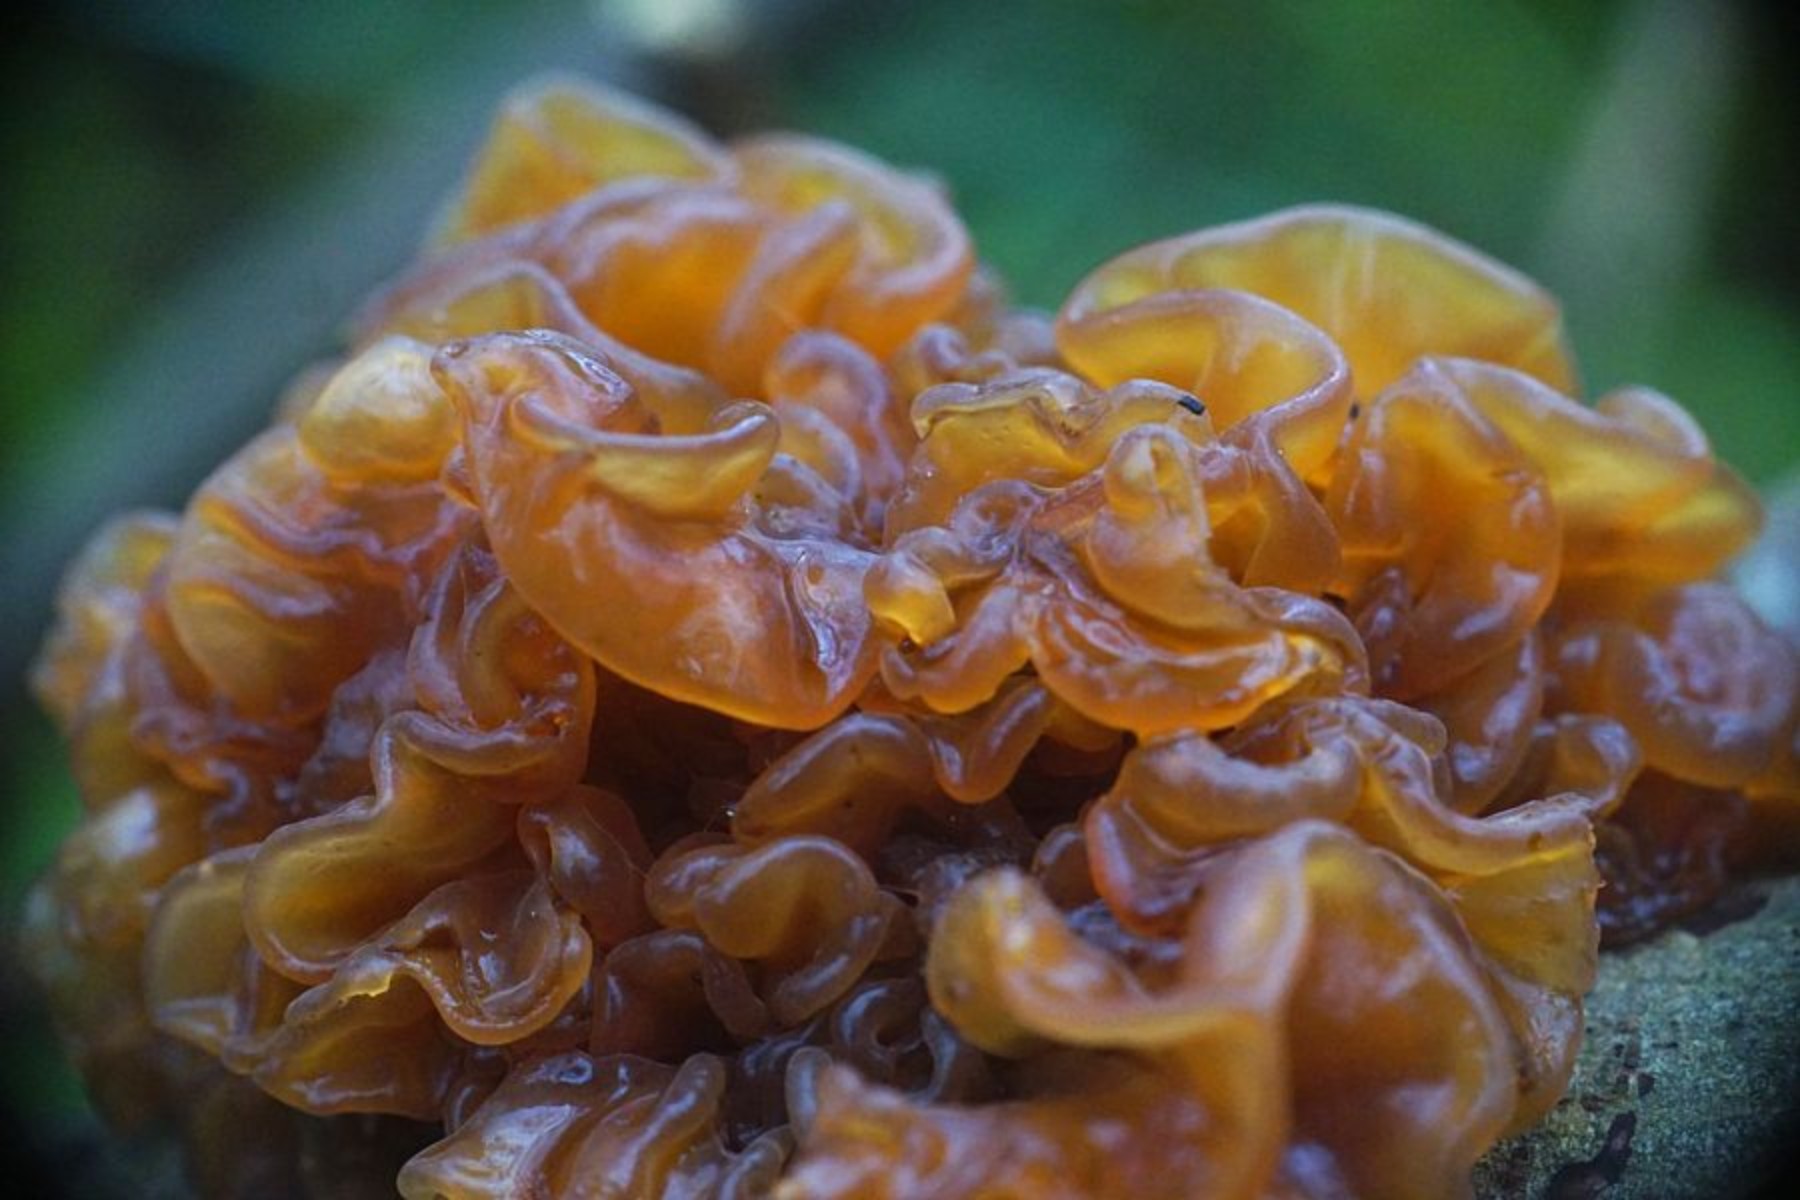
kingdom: Fungi
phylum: Basidiomycota
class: Tremellomycetes
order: Tremellales
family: Tremellaceae
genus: Phaeotremella
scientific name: Phaeotremella frondosa
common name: kæmpe-bævresvamp
